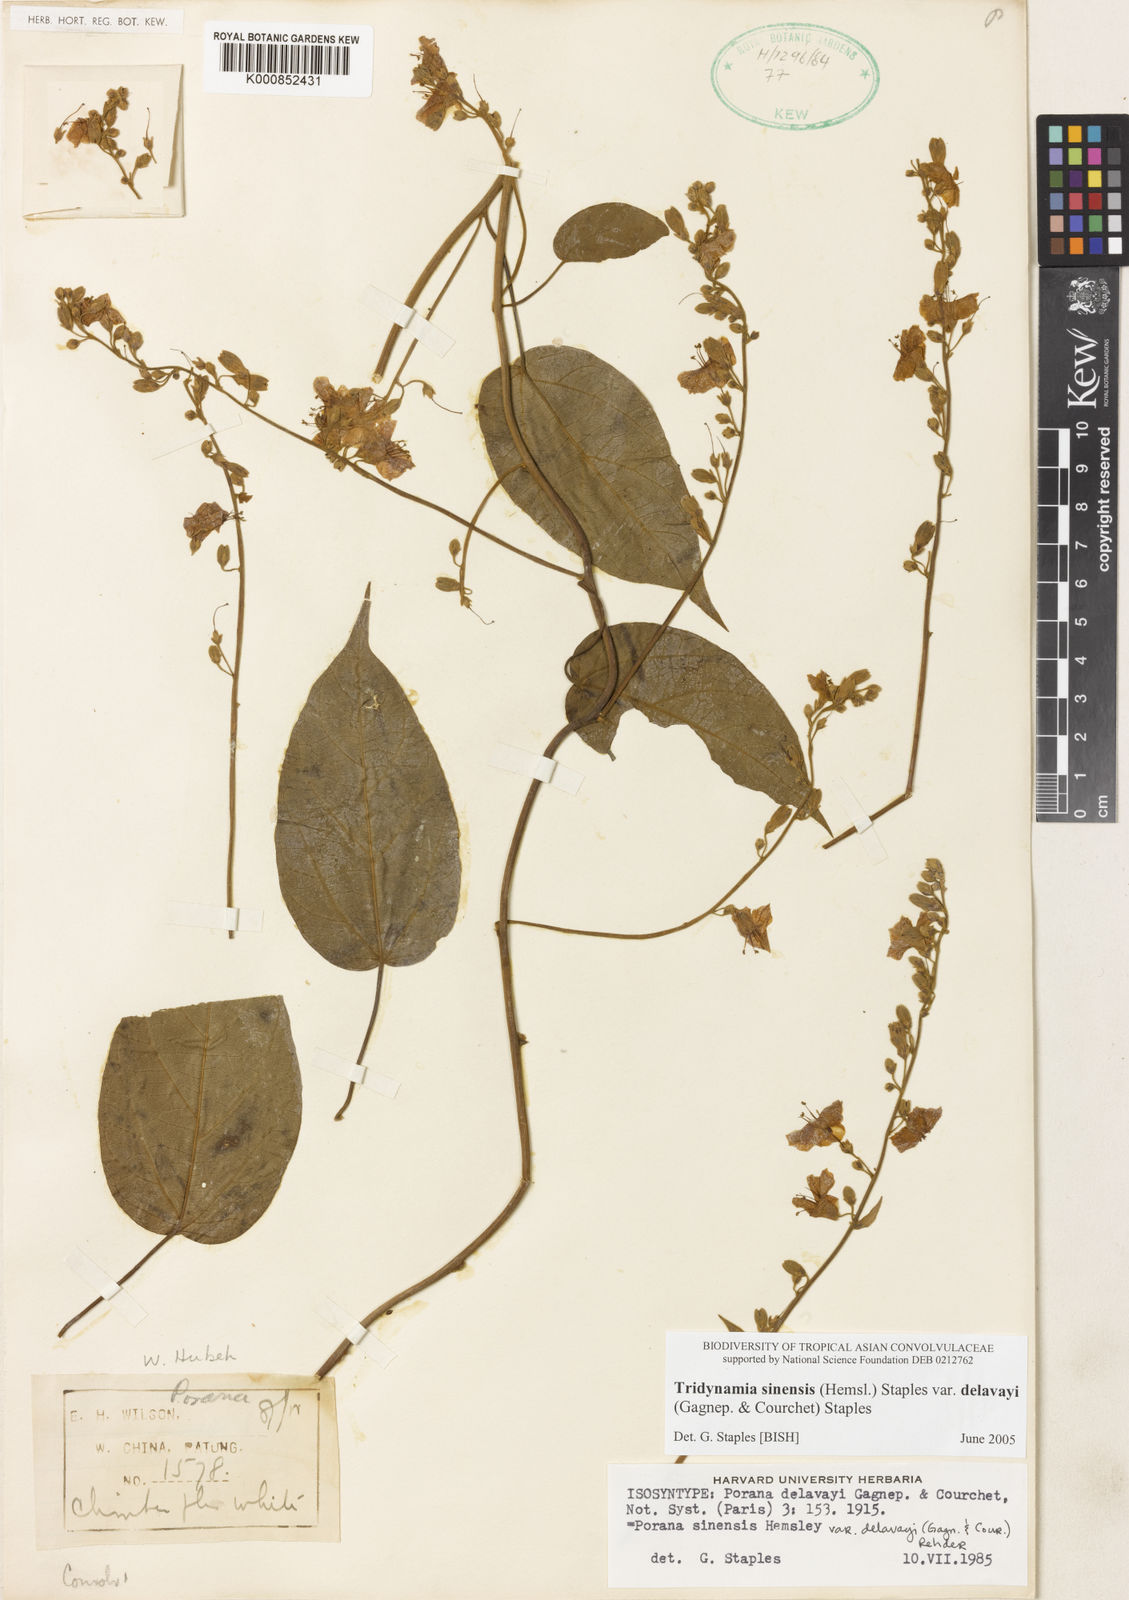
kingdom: Plantae
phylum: Tracheophyta
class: Magnoliopsida
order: Solanales
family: Convolvulaceae
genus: Tridynamia
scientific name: Tridynamia sinensis
